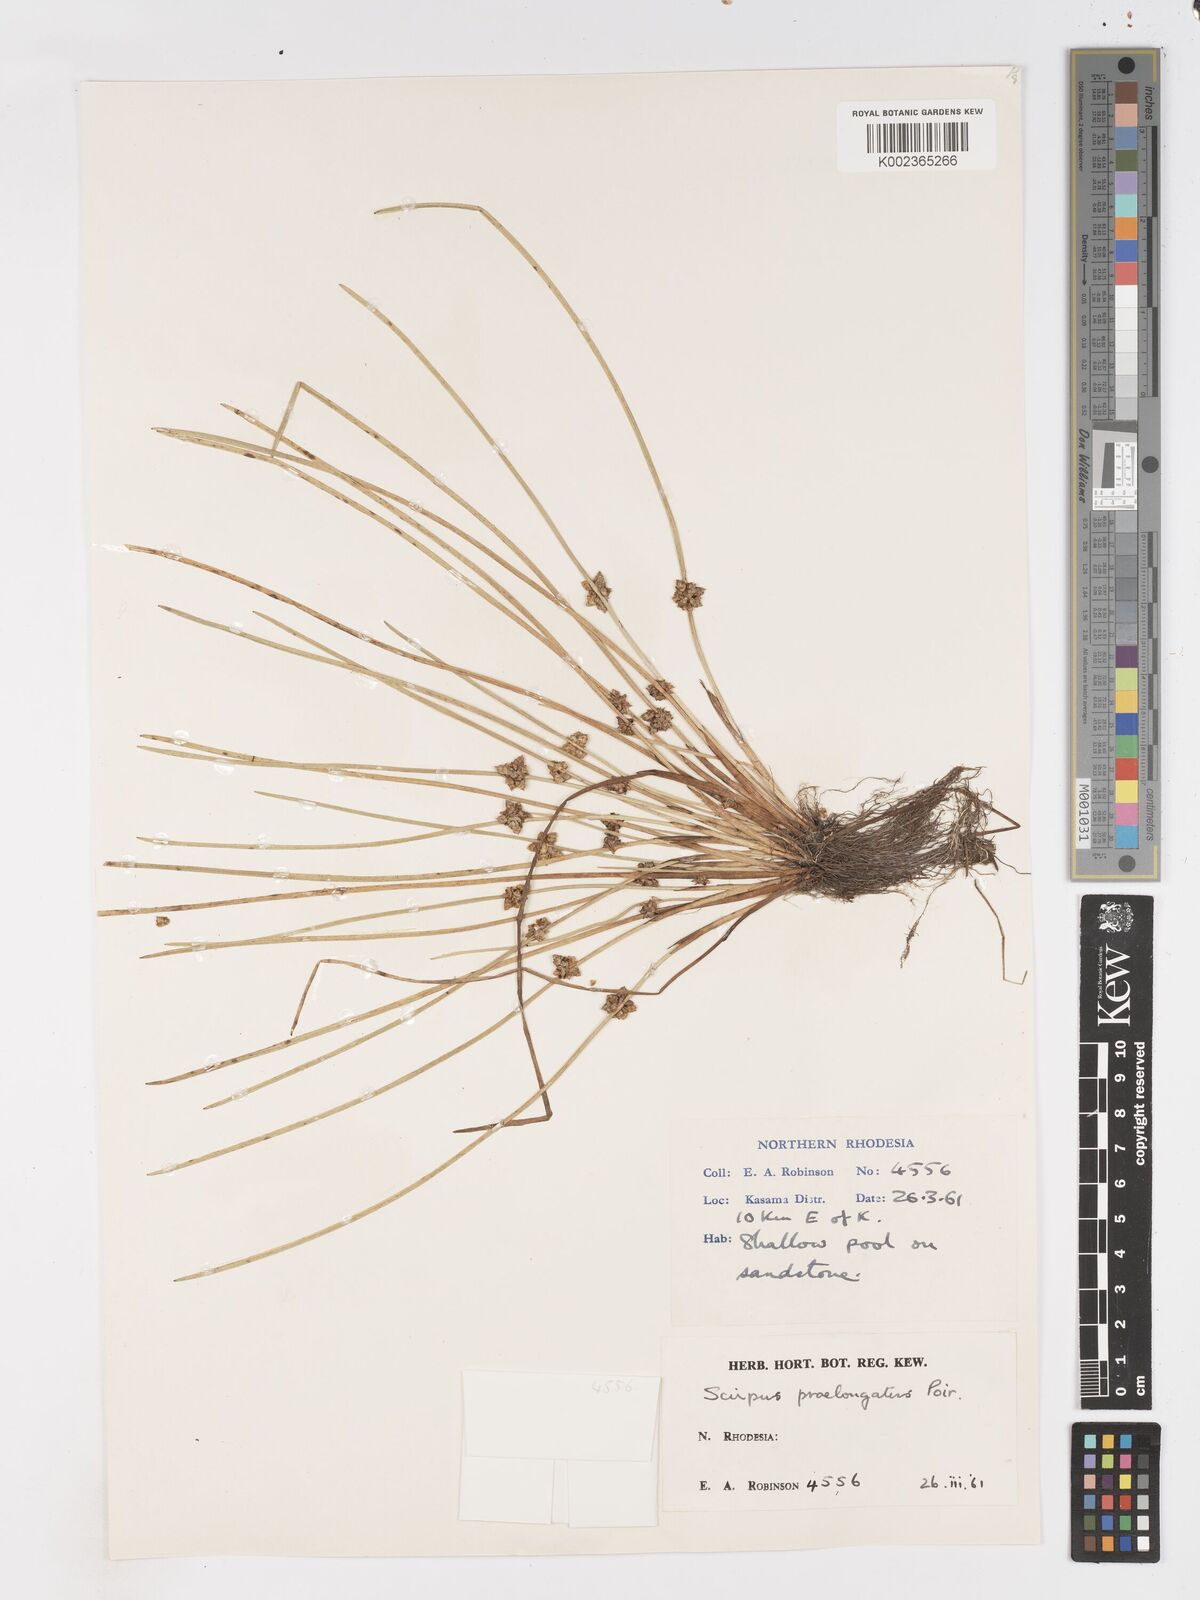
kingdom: Plantae
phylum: Tracheophyta
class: Liliopsida
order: Poales
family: Cyperaceae
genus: Schoenoplectiella
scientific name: Schoenoplectiella senegalensis
